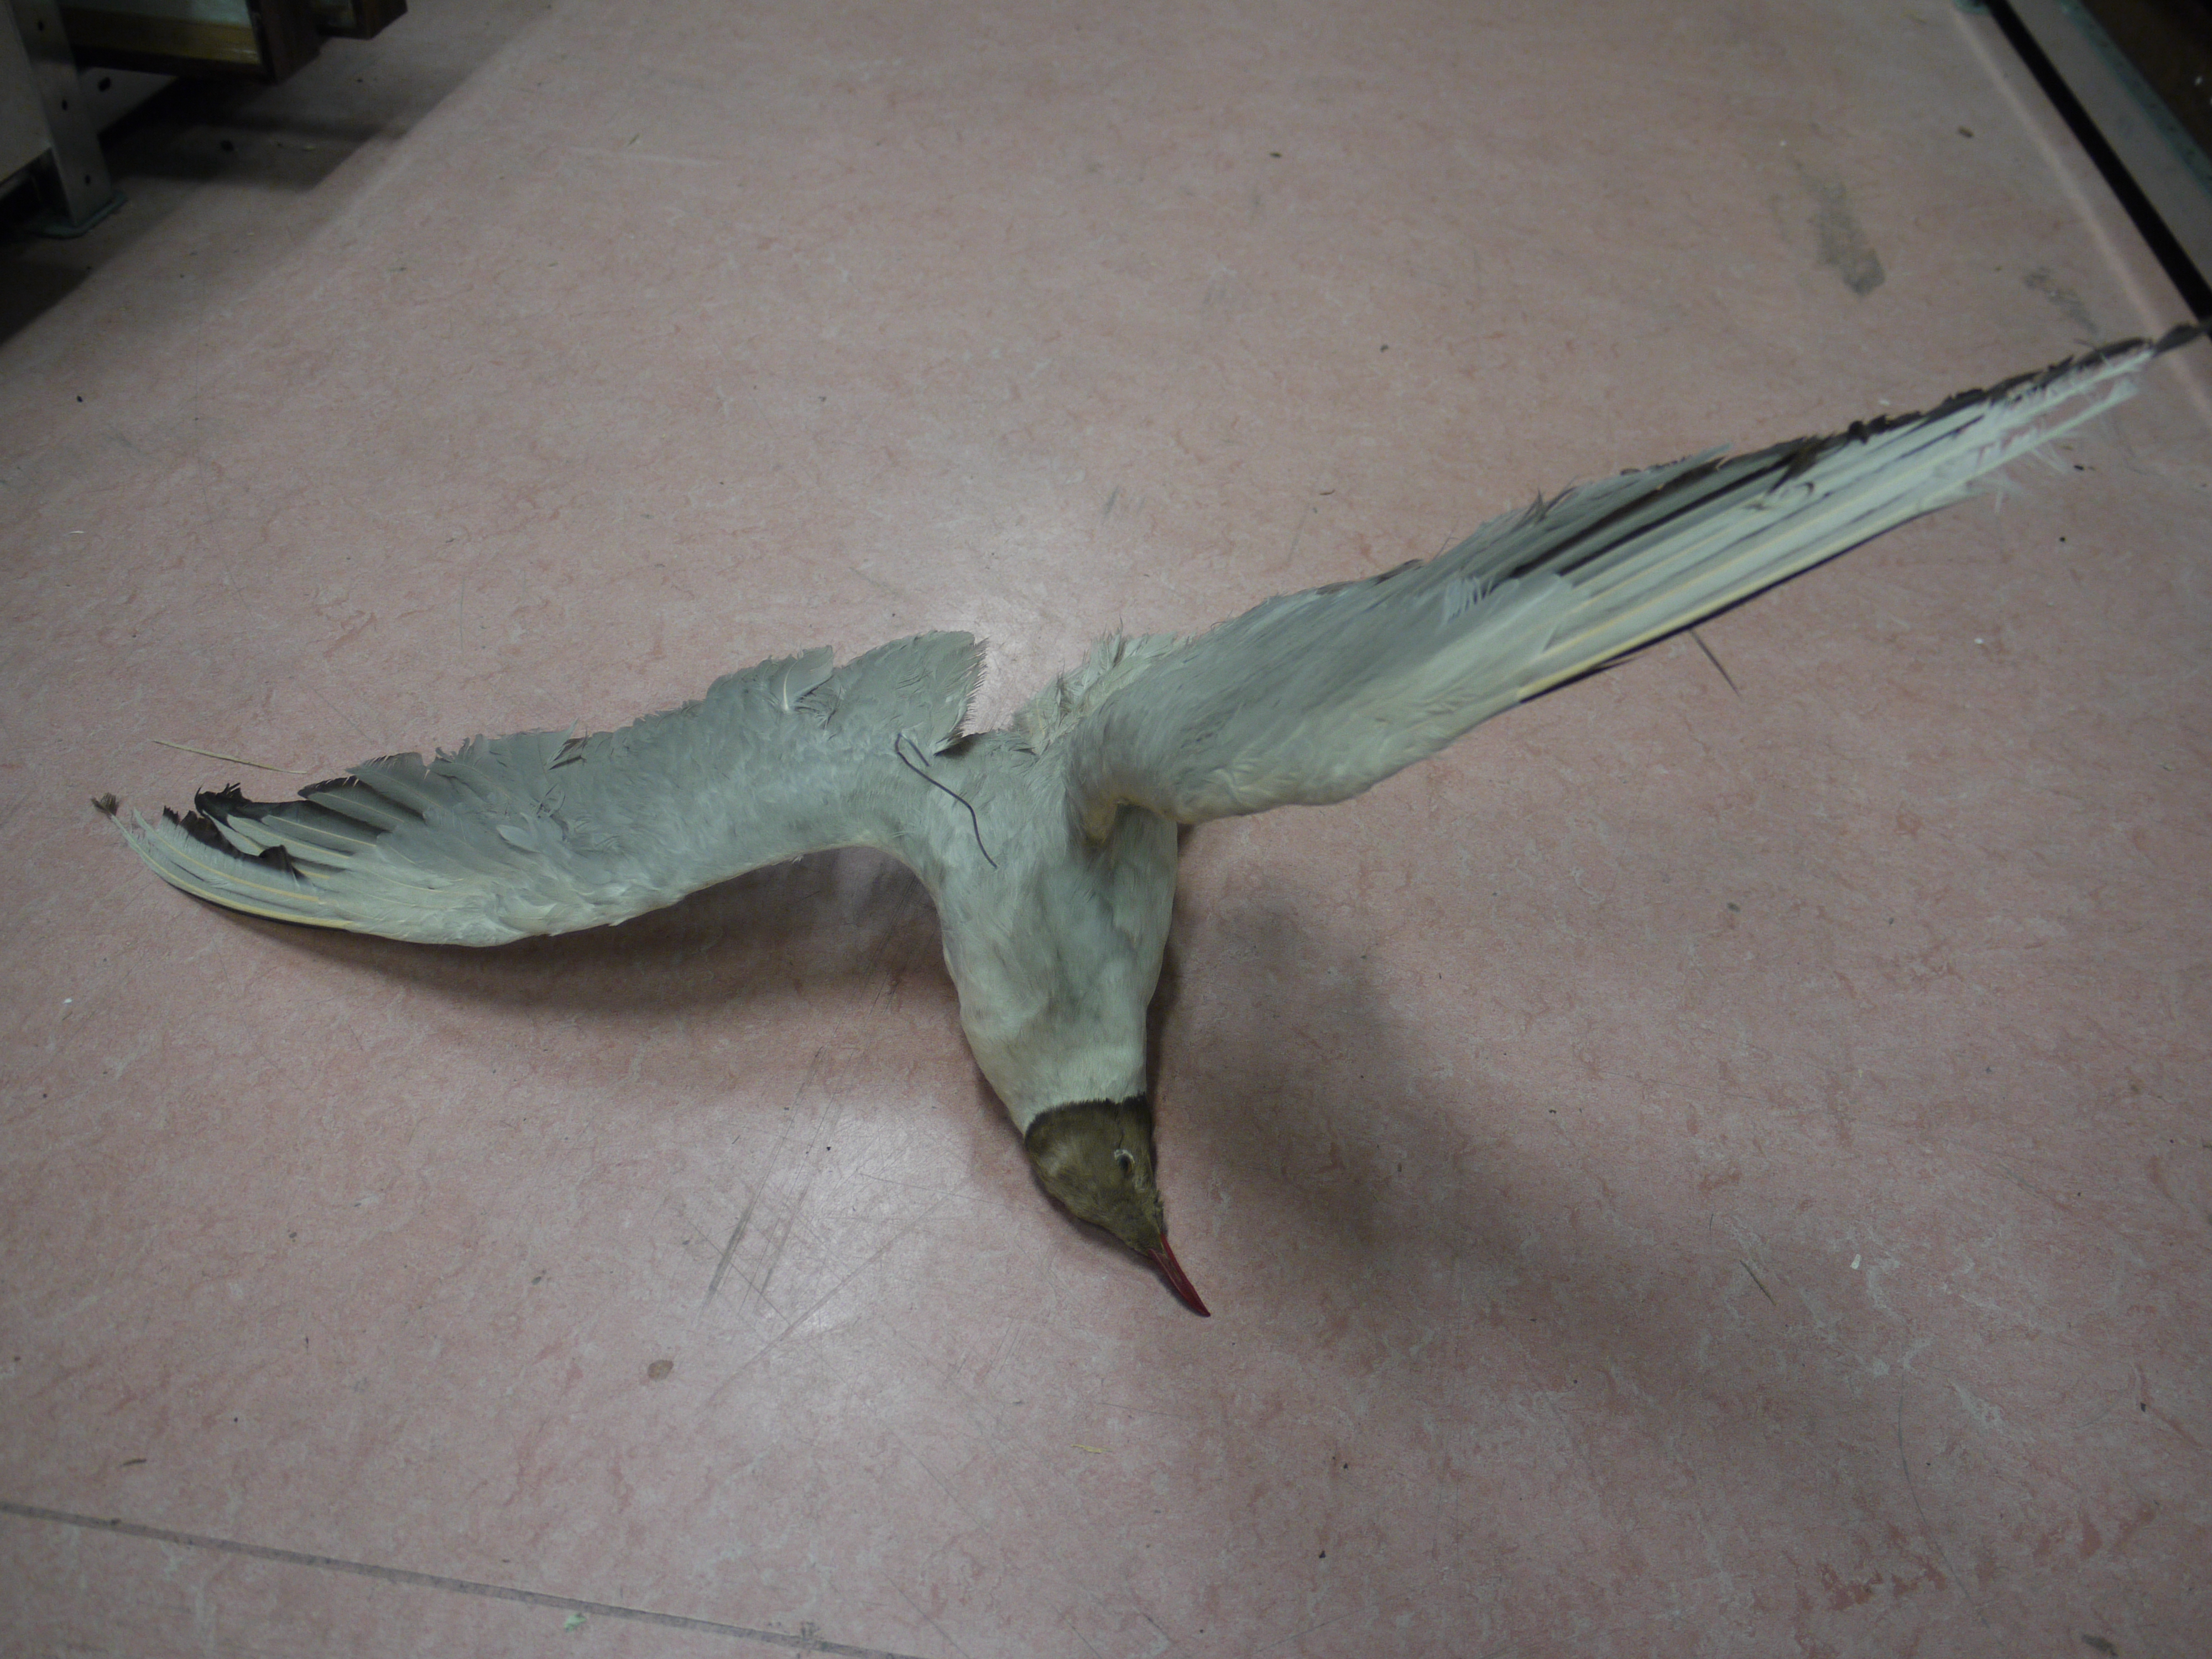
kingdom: Animalia
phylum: Chordata
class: Aves
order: Charadriiformes
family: Laridae
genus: Chroicocephalus
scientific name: Chroicocephalus ridibundus
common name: Black-headed gull
